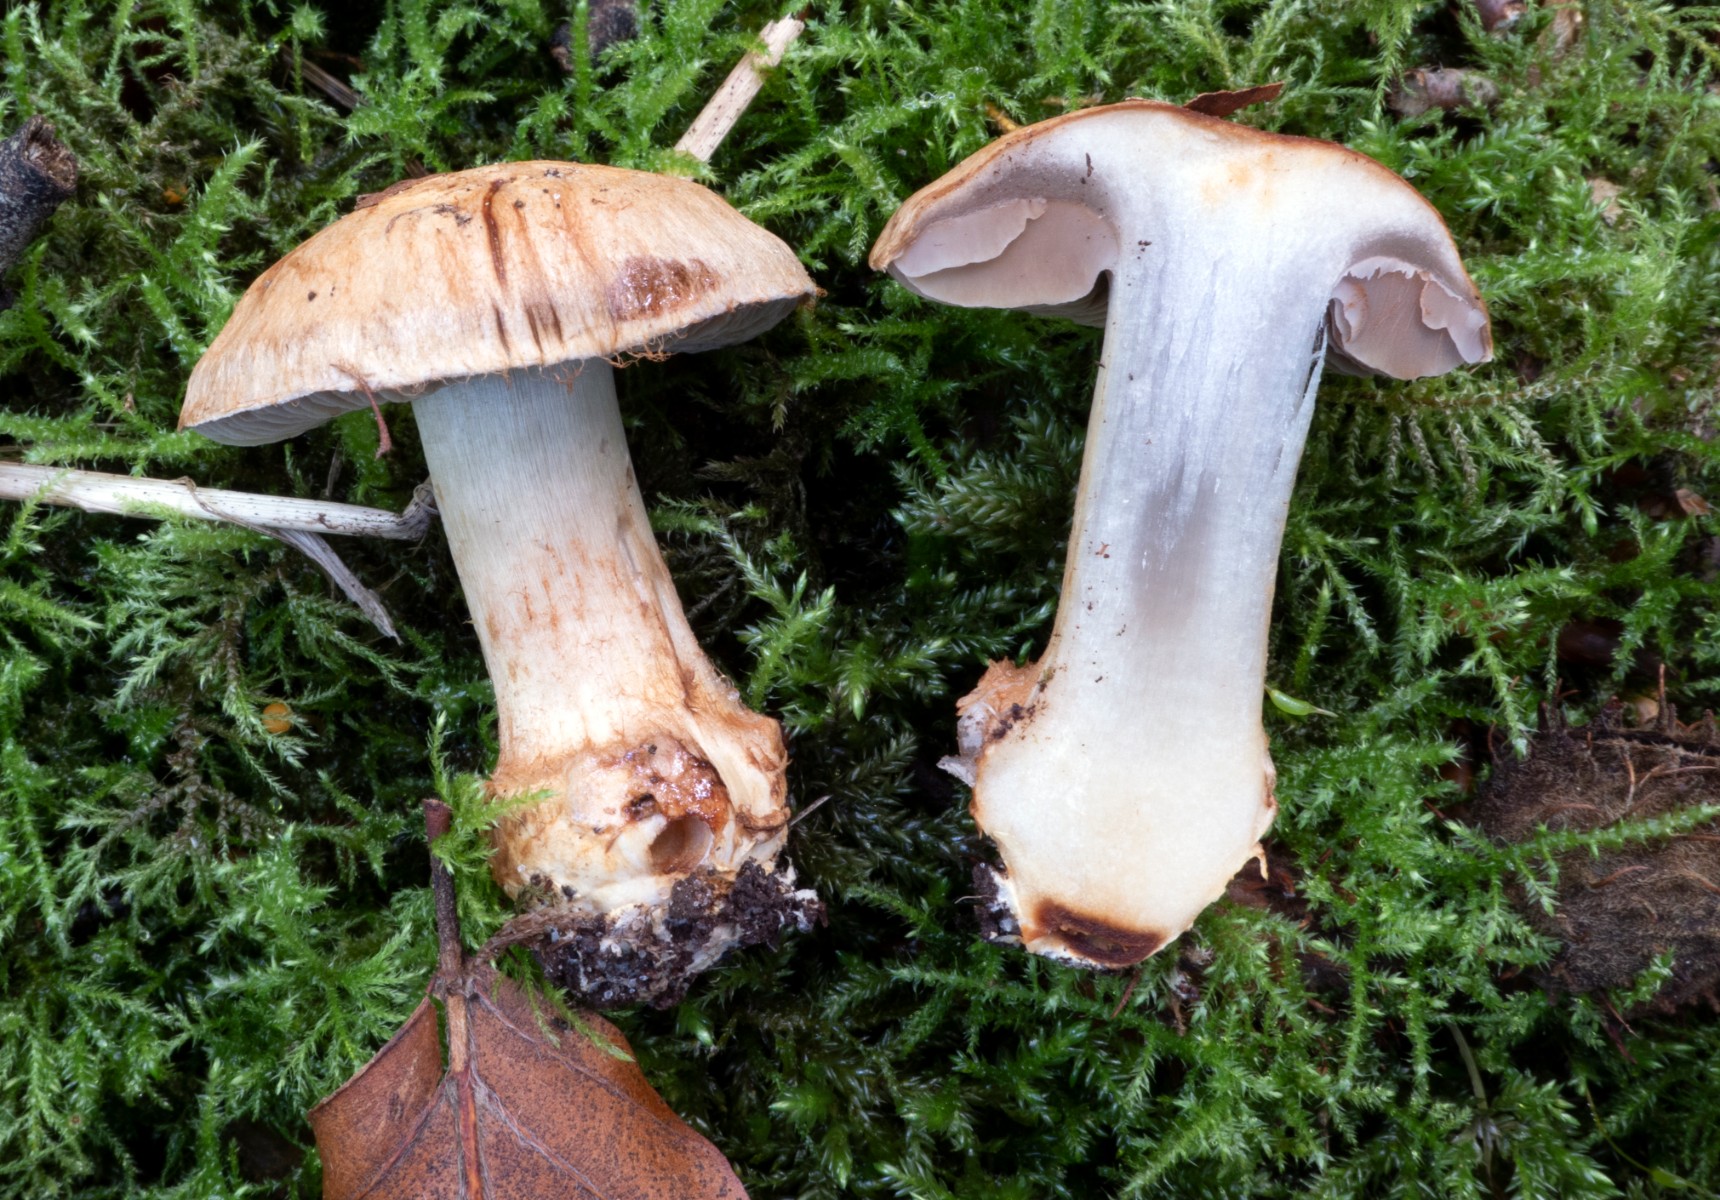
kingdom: Fungi
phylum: Basidiomycota
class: Agaricomycetes
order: Agaricales
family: Cortinariaceae
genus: Phlegmacium
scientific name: Phlegmacium luhmannii
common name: musegrå slørhat
